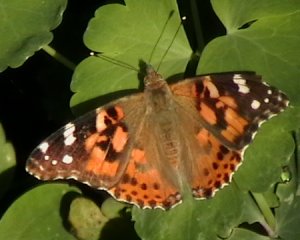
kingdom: Animalia
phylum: Arthropoda
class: Insecta
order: Lepidoptera
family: Nymphalidae
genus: Vanessa
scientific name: Vanessa cardui
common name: Painted Lady
